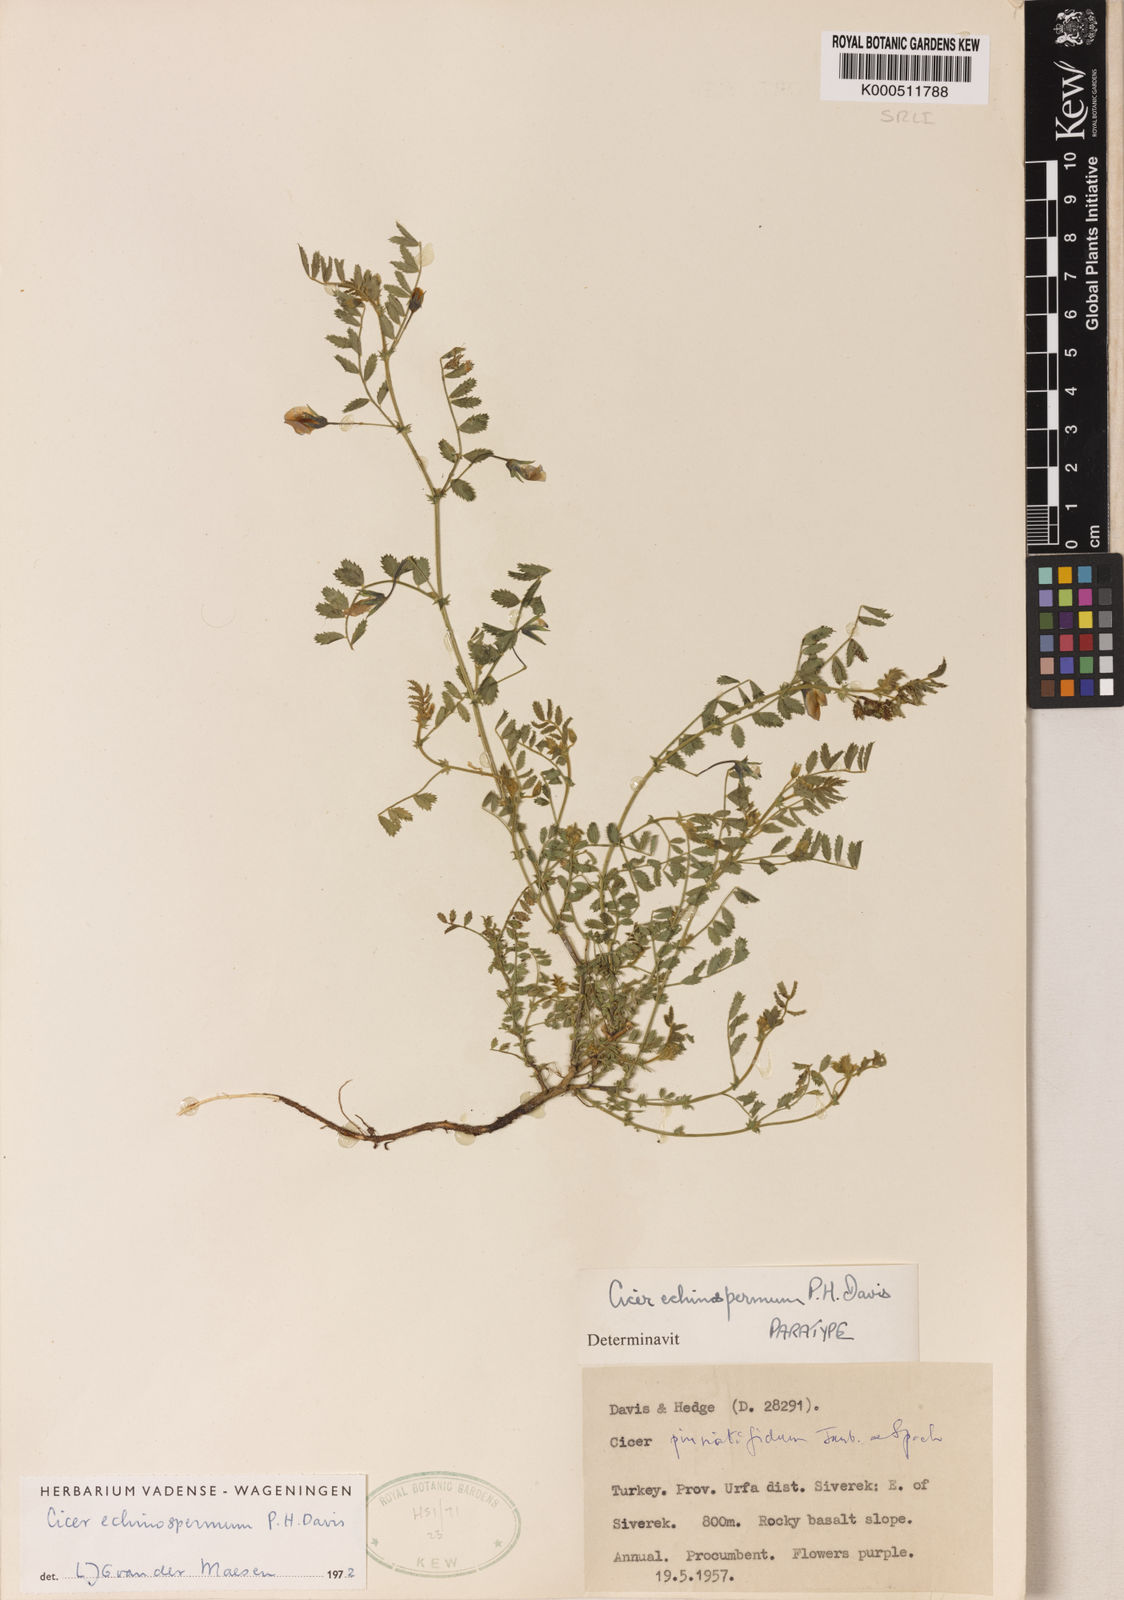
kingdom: Plantae
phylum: Tracheophyta
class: Magnoliopsida
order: Fabales
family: Fabaceae
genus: Cicer
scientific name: Cicer echinospermum
